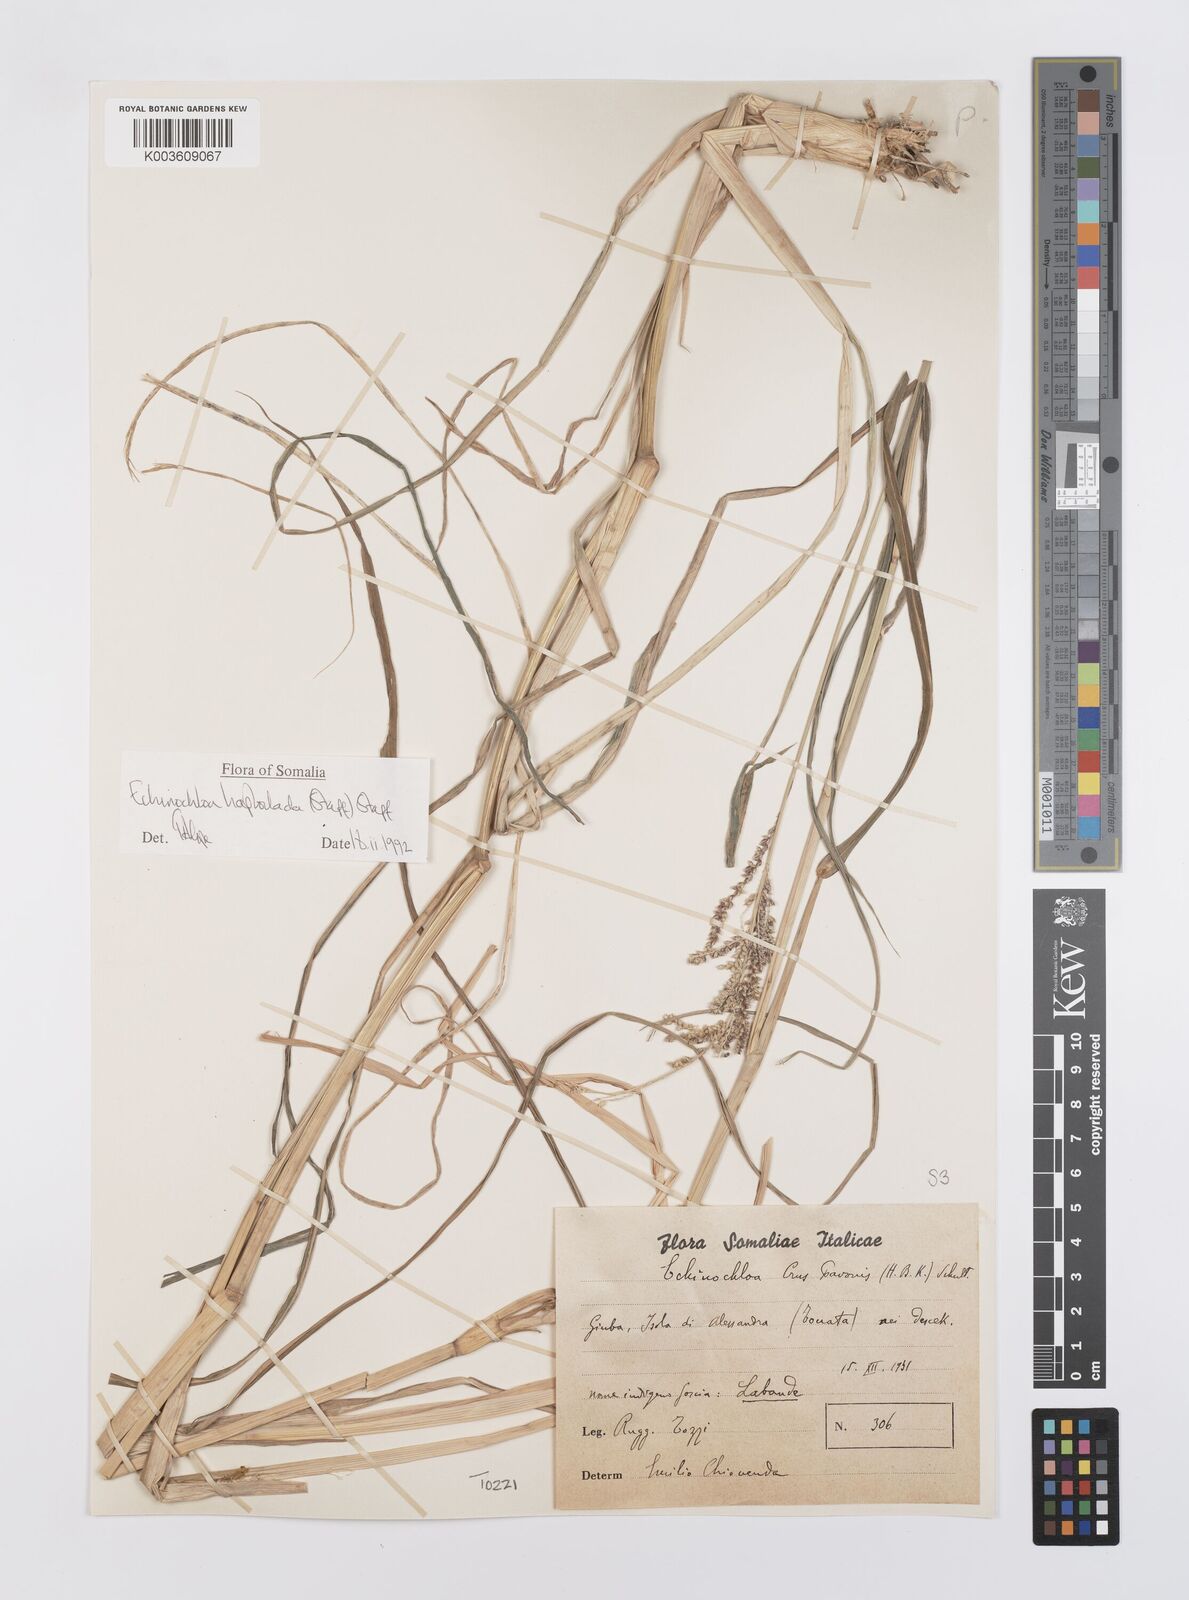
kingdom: Plantae
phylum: Tracheophyta
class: Liliopsida
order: Poales
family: Poaceae
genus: Echinochloa
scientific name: Echinochloa haploclada
